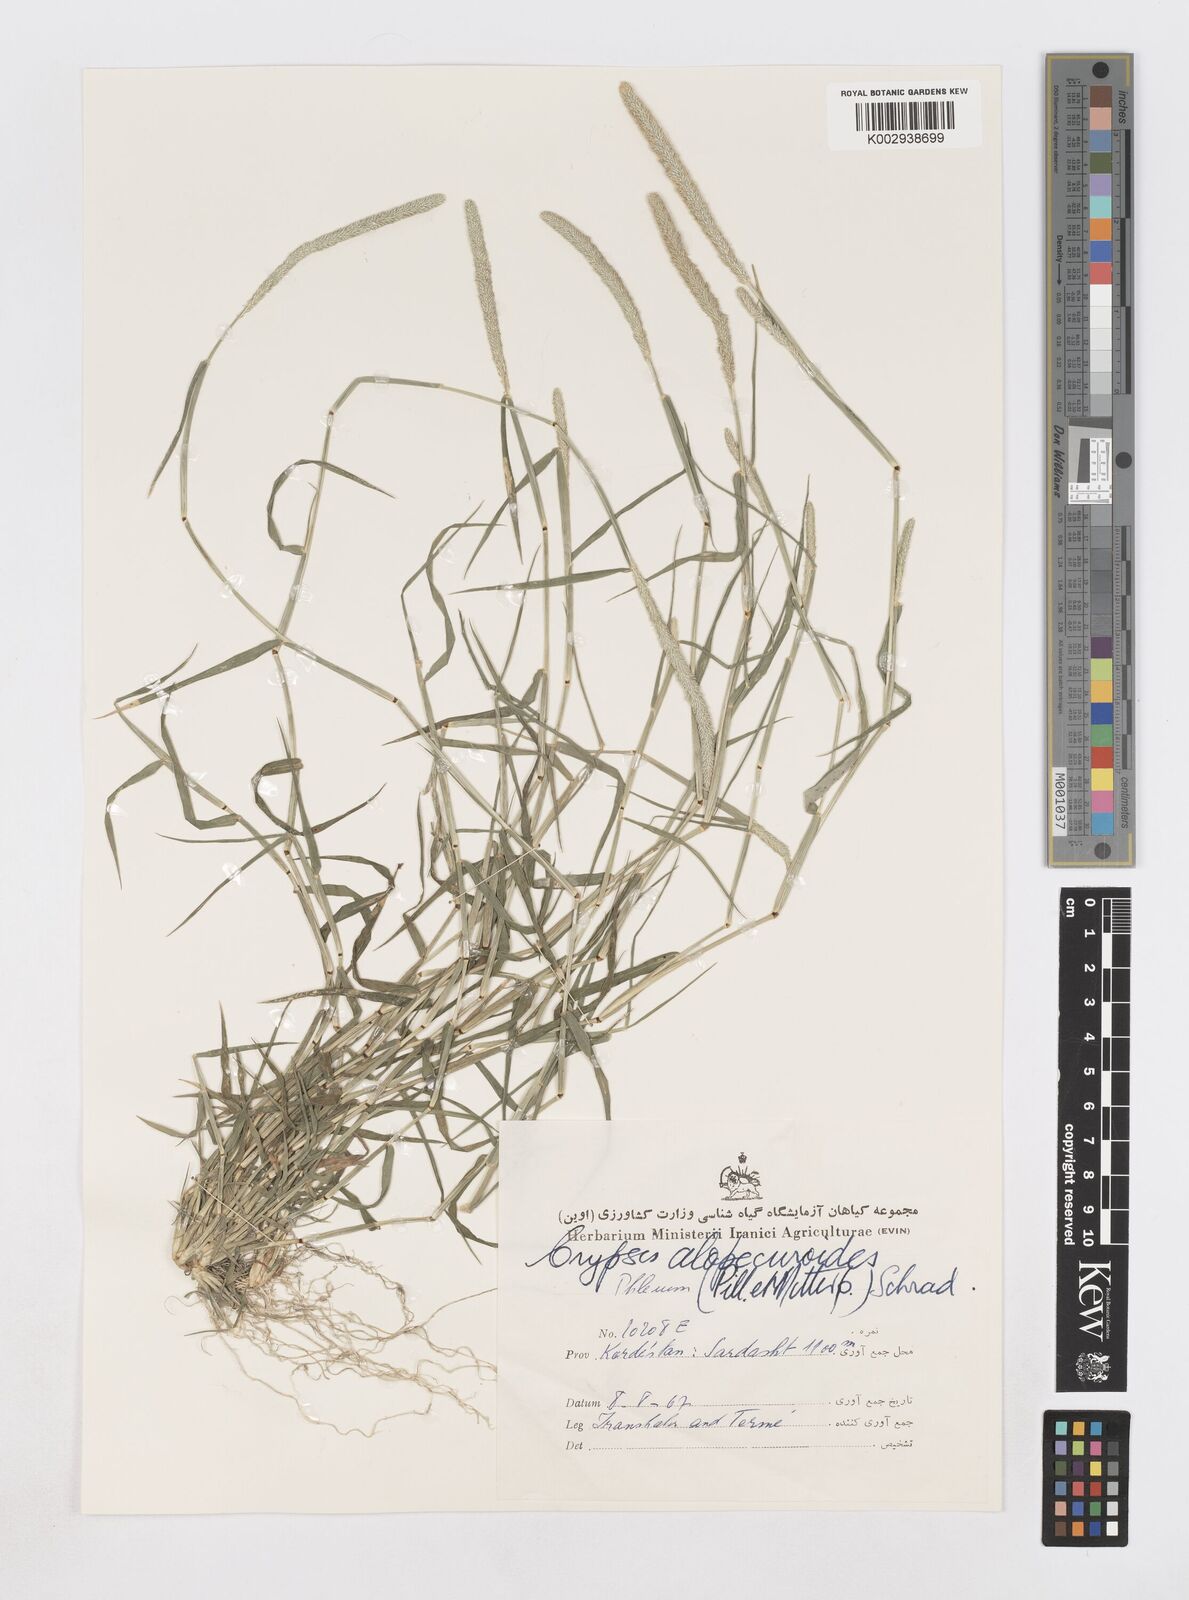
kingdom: Plantae
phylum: Tracheophyta
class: Liliopsida
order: Poales
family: Poaceae
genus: Sporobolus
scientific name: Sporobolus alopecuroides
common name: Foxtail pricklegrass
